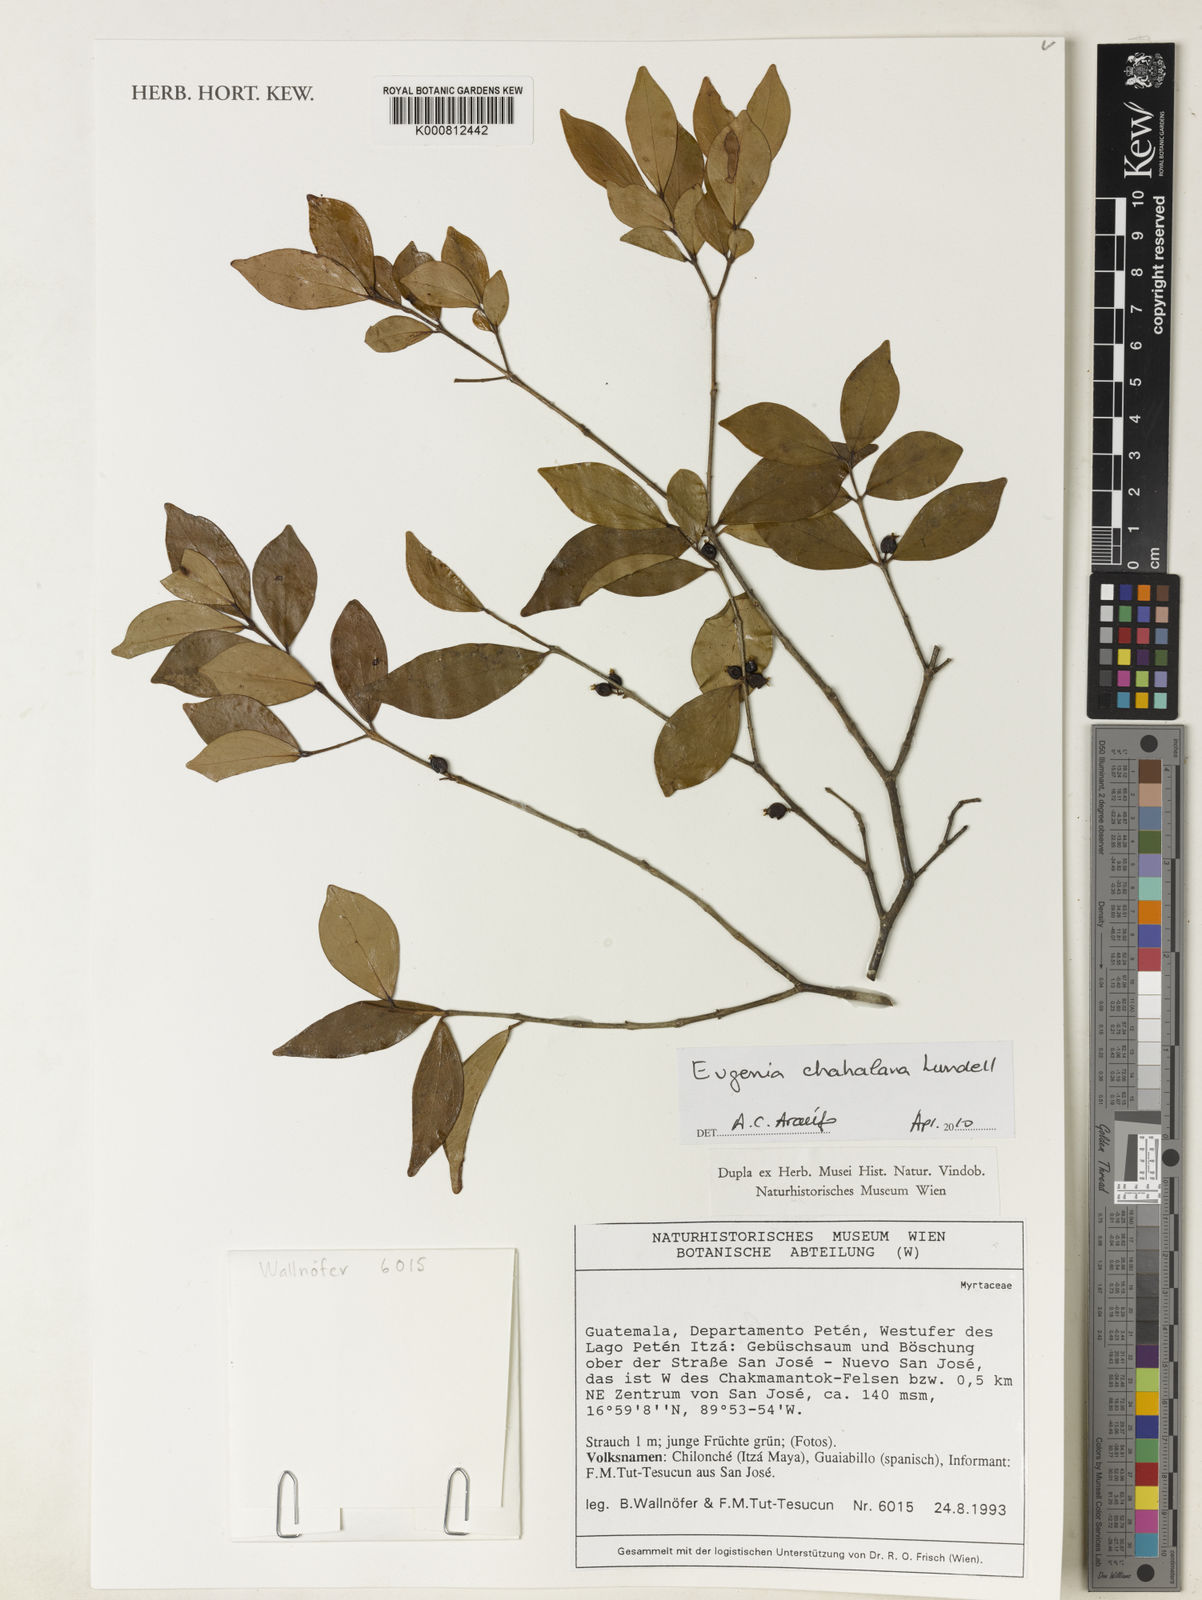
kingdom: Plantae
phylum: Tracheophyta
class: Magnoliopsida
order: Myrtales
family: Myrtaceae
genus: Eugenia
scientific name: Eugenia chahalana
